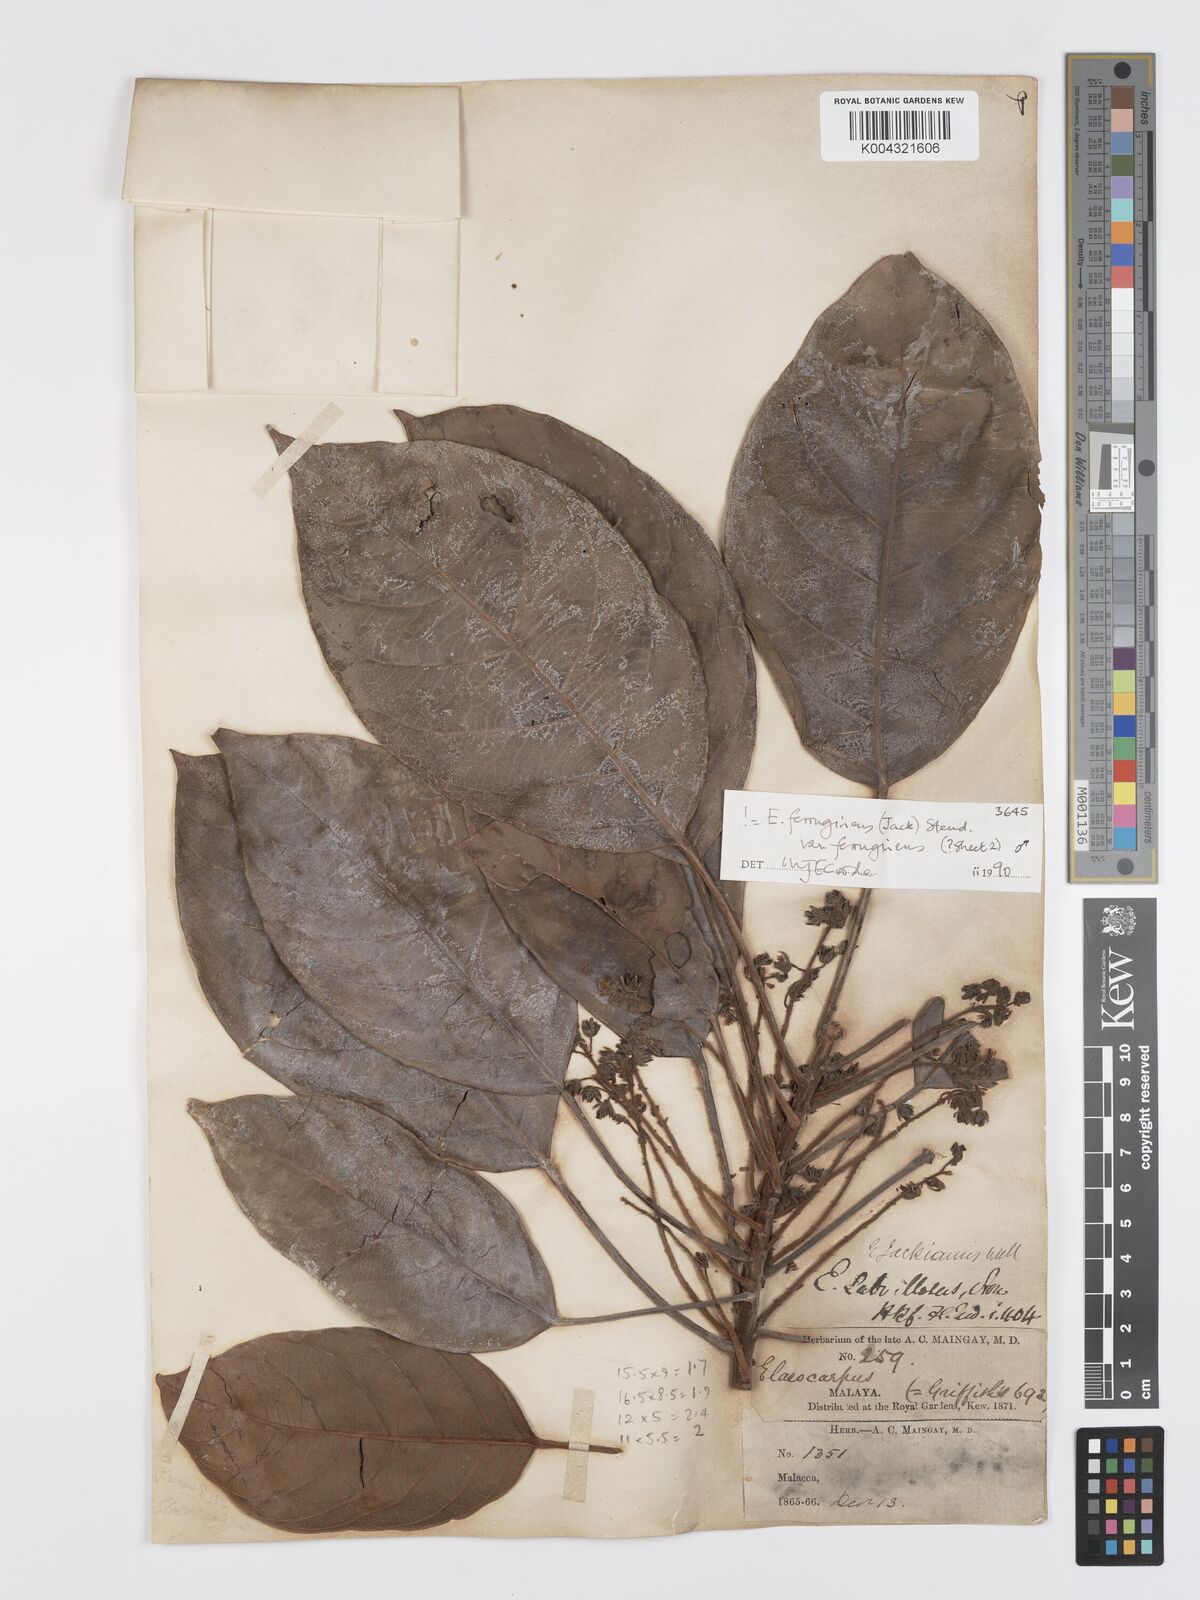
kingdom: Plantae
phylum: Tracheophyta
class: Magnoliopsida
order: Oxalidales
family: Elaeocarpaceae
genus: Elaeocarpus
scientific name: Elaeocarpus ferrugineus
